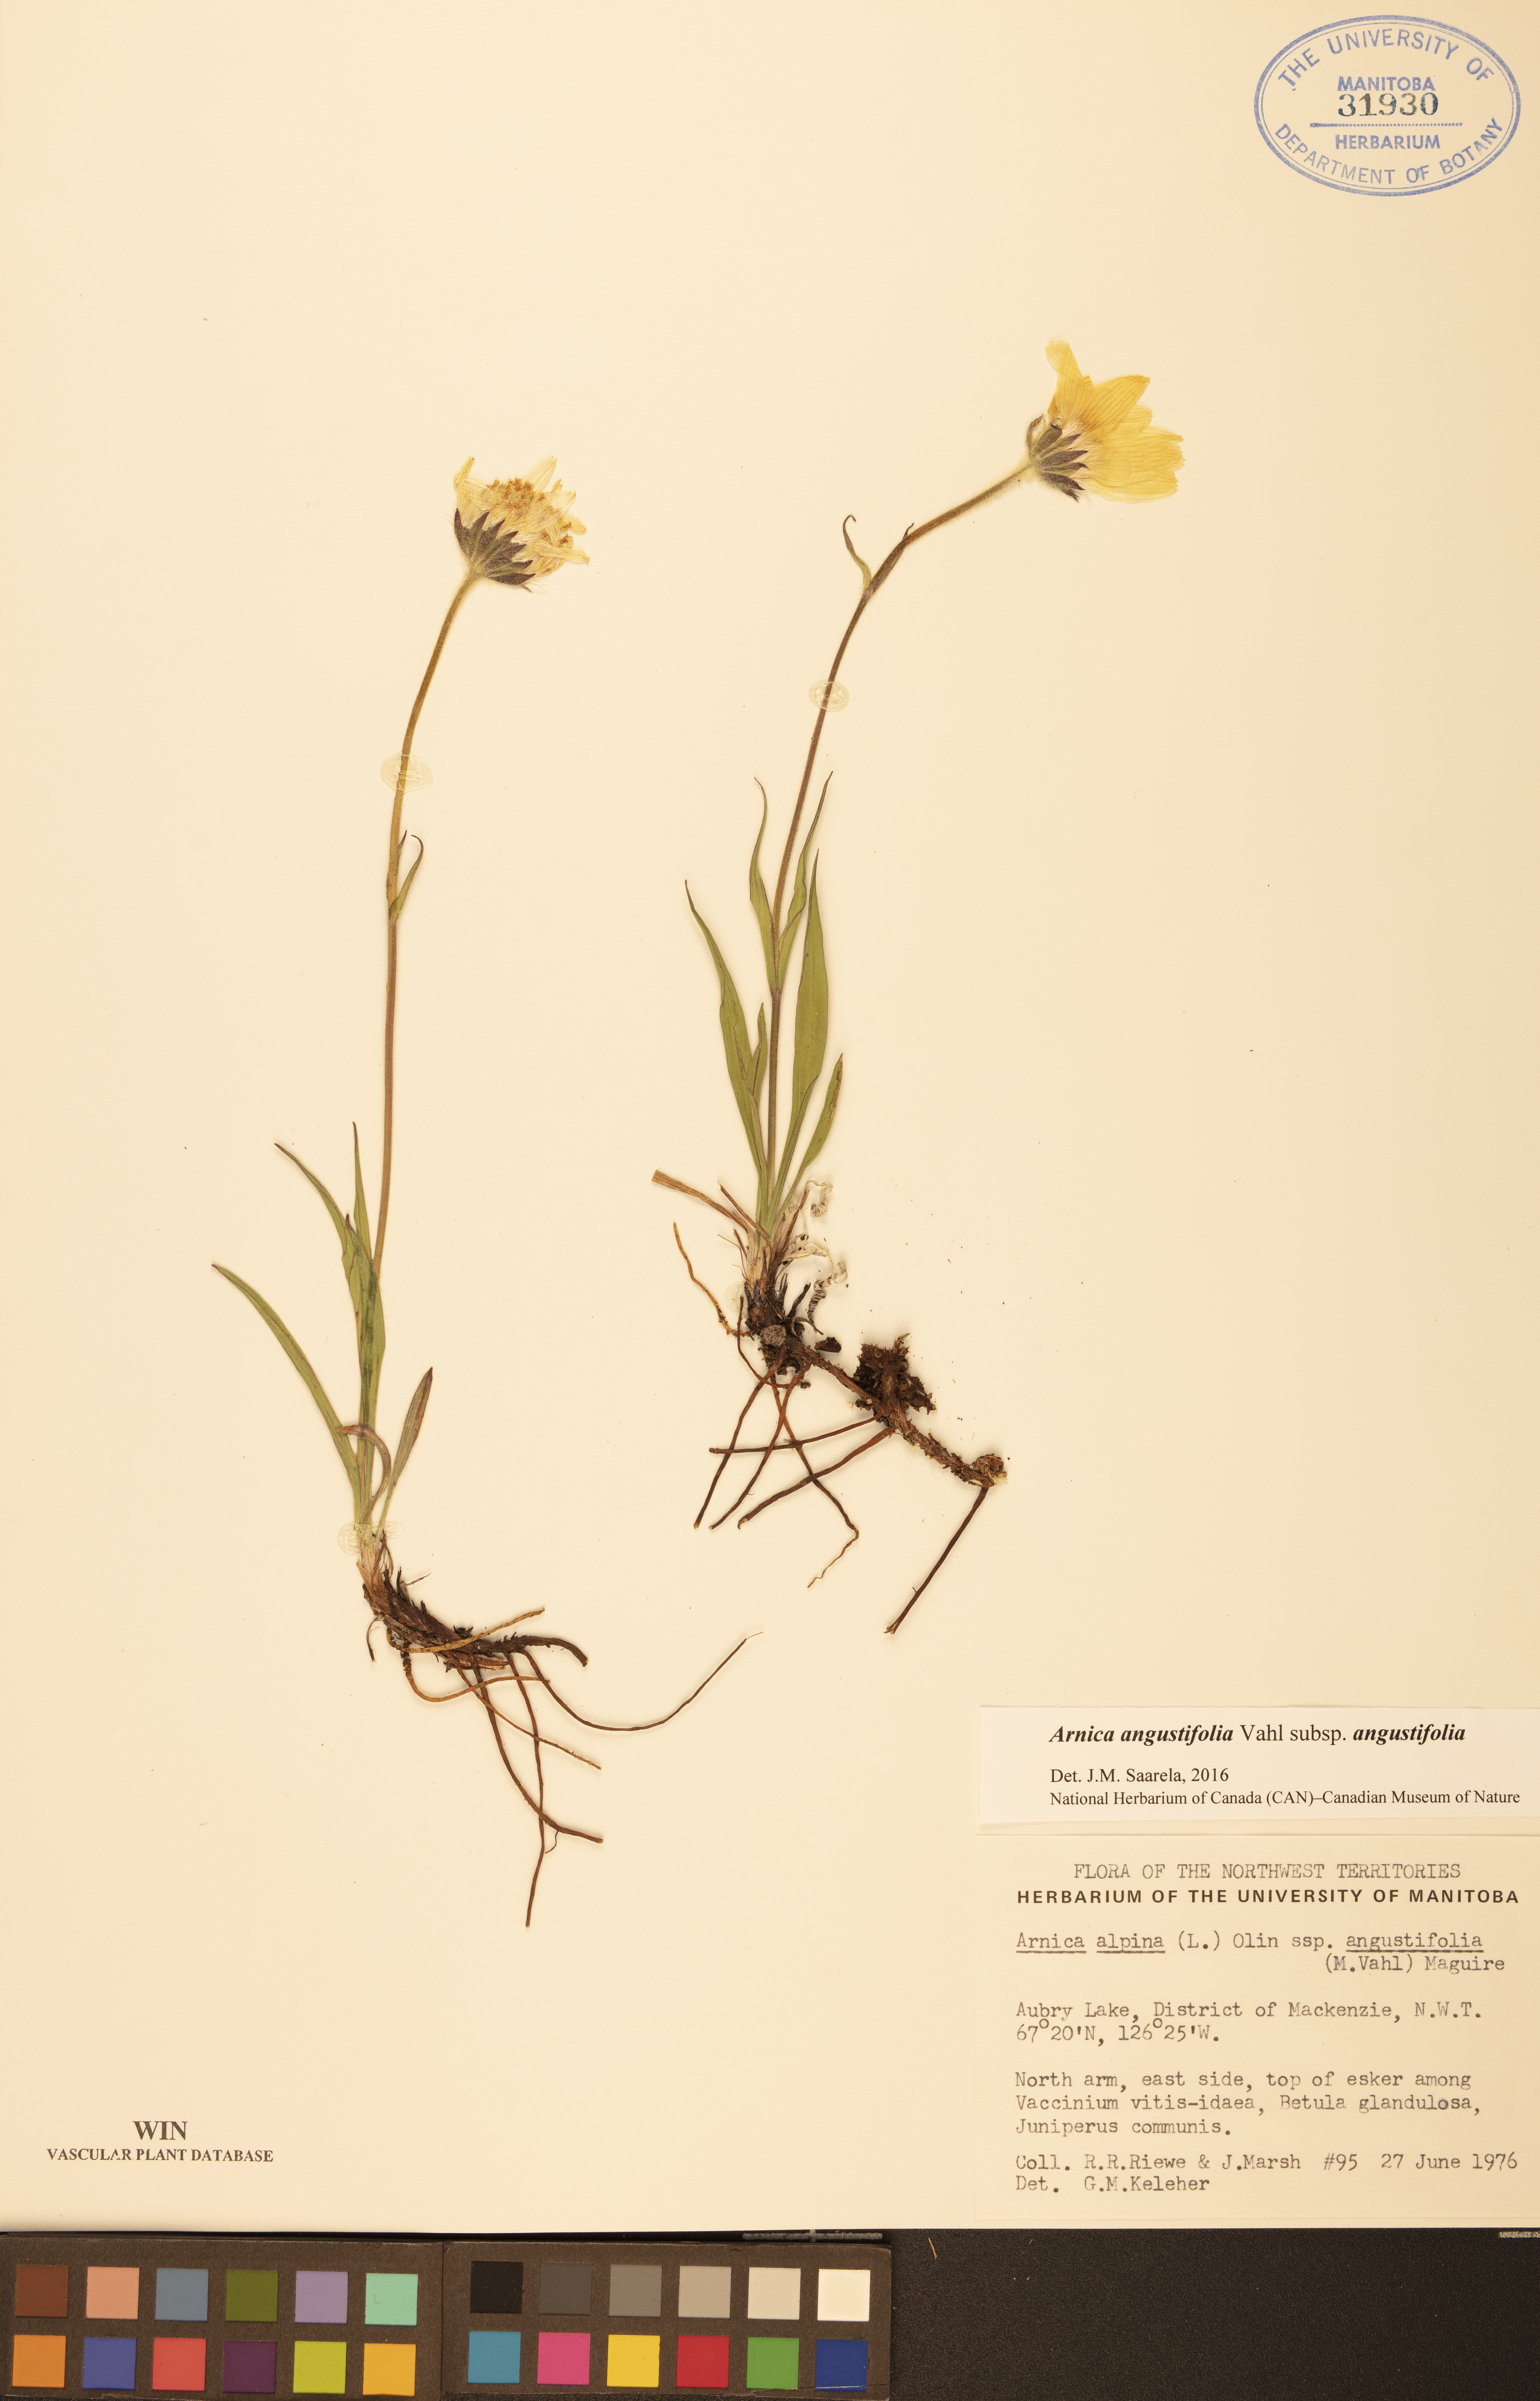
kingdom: Plantae
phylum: Tracheophyta
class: Magnoliopsida
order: Asterales
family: Asteraceae
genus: Arnica
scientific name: Arnica angustifolia
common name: Arctic arnica
